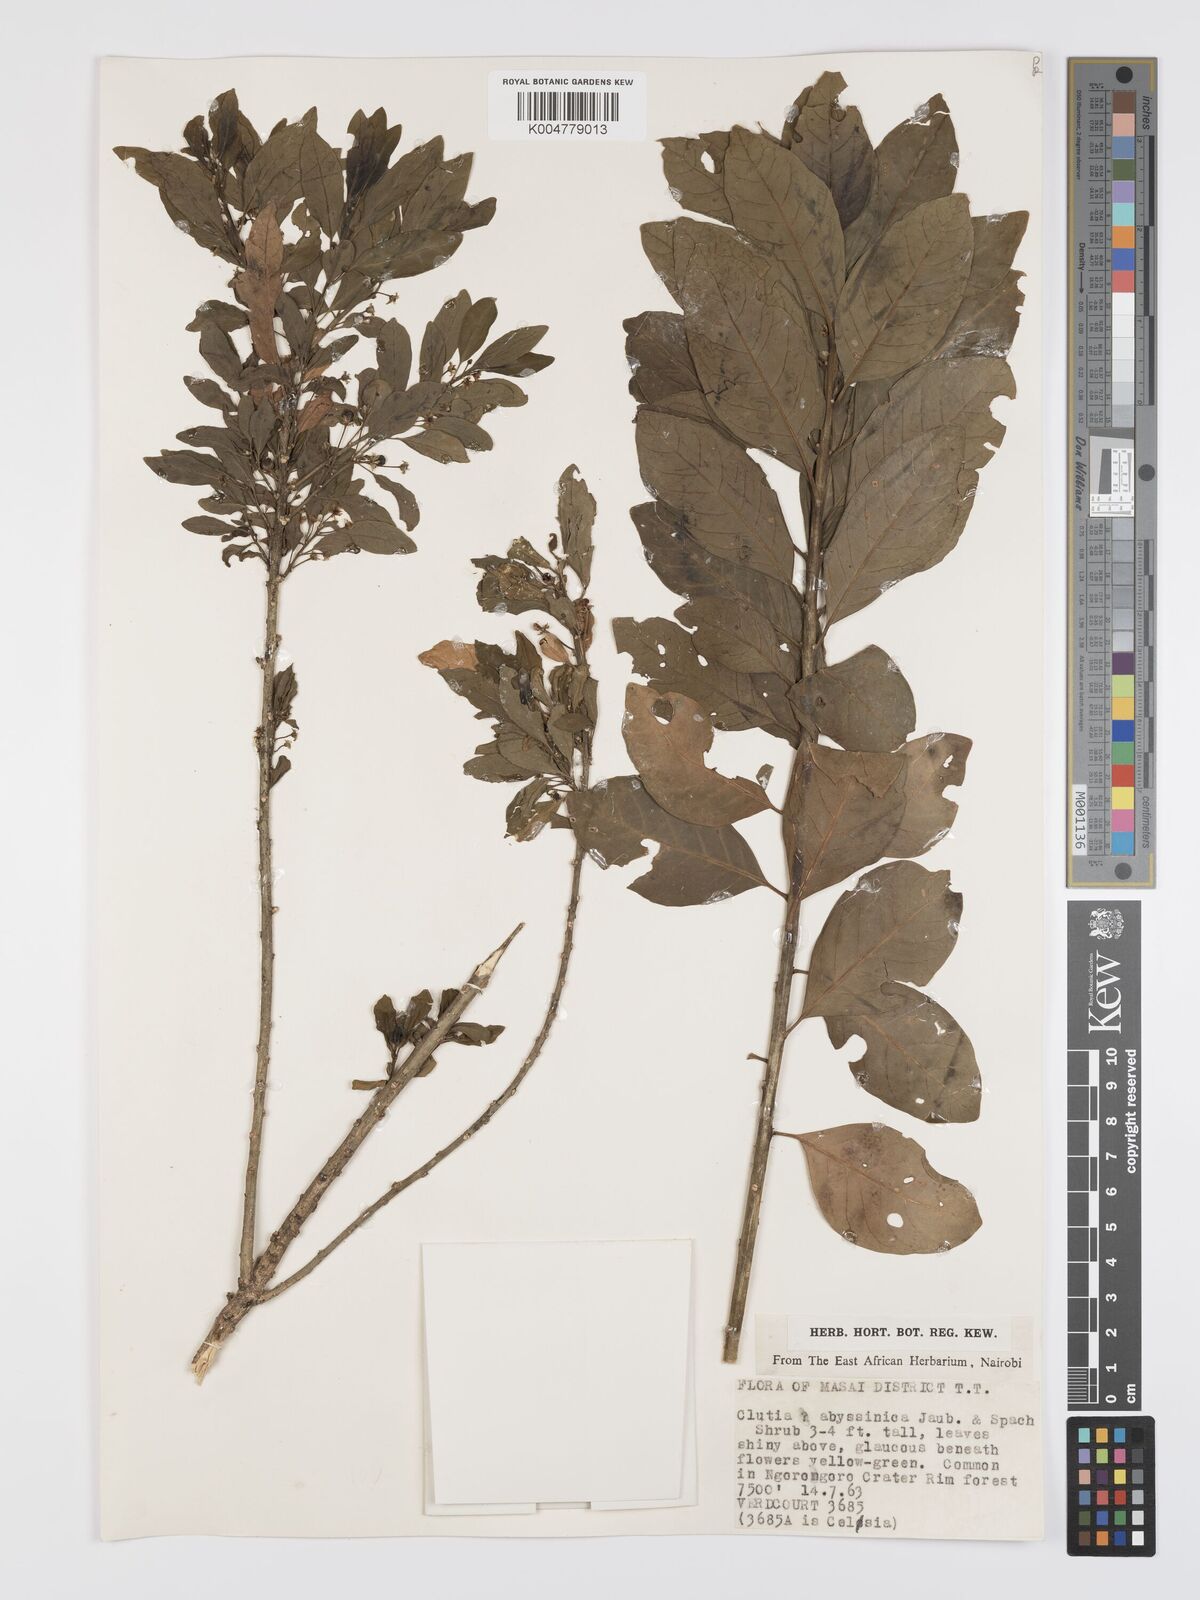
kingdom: Plantae
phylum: Tracheophyta
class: Magnoliopsida
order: Malpighiales
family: Peraceae
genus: Clutia
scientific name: Clutia abyssinica
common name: Large lightning bush
